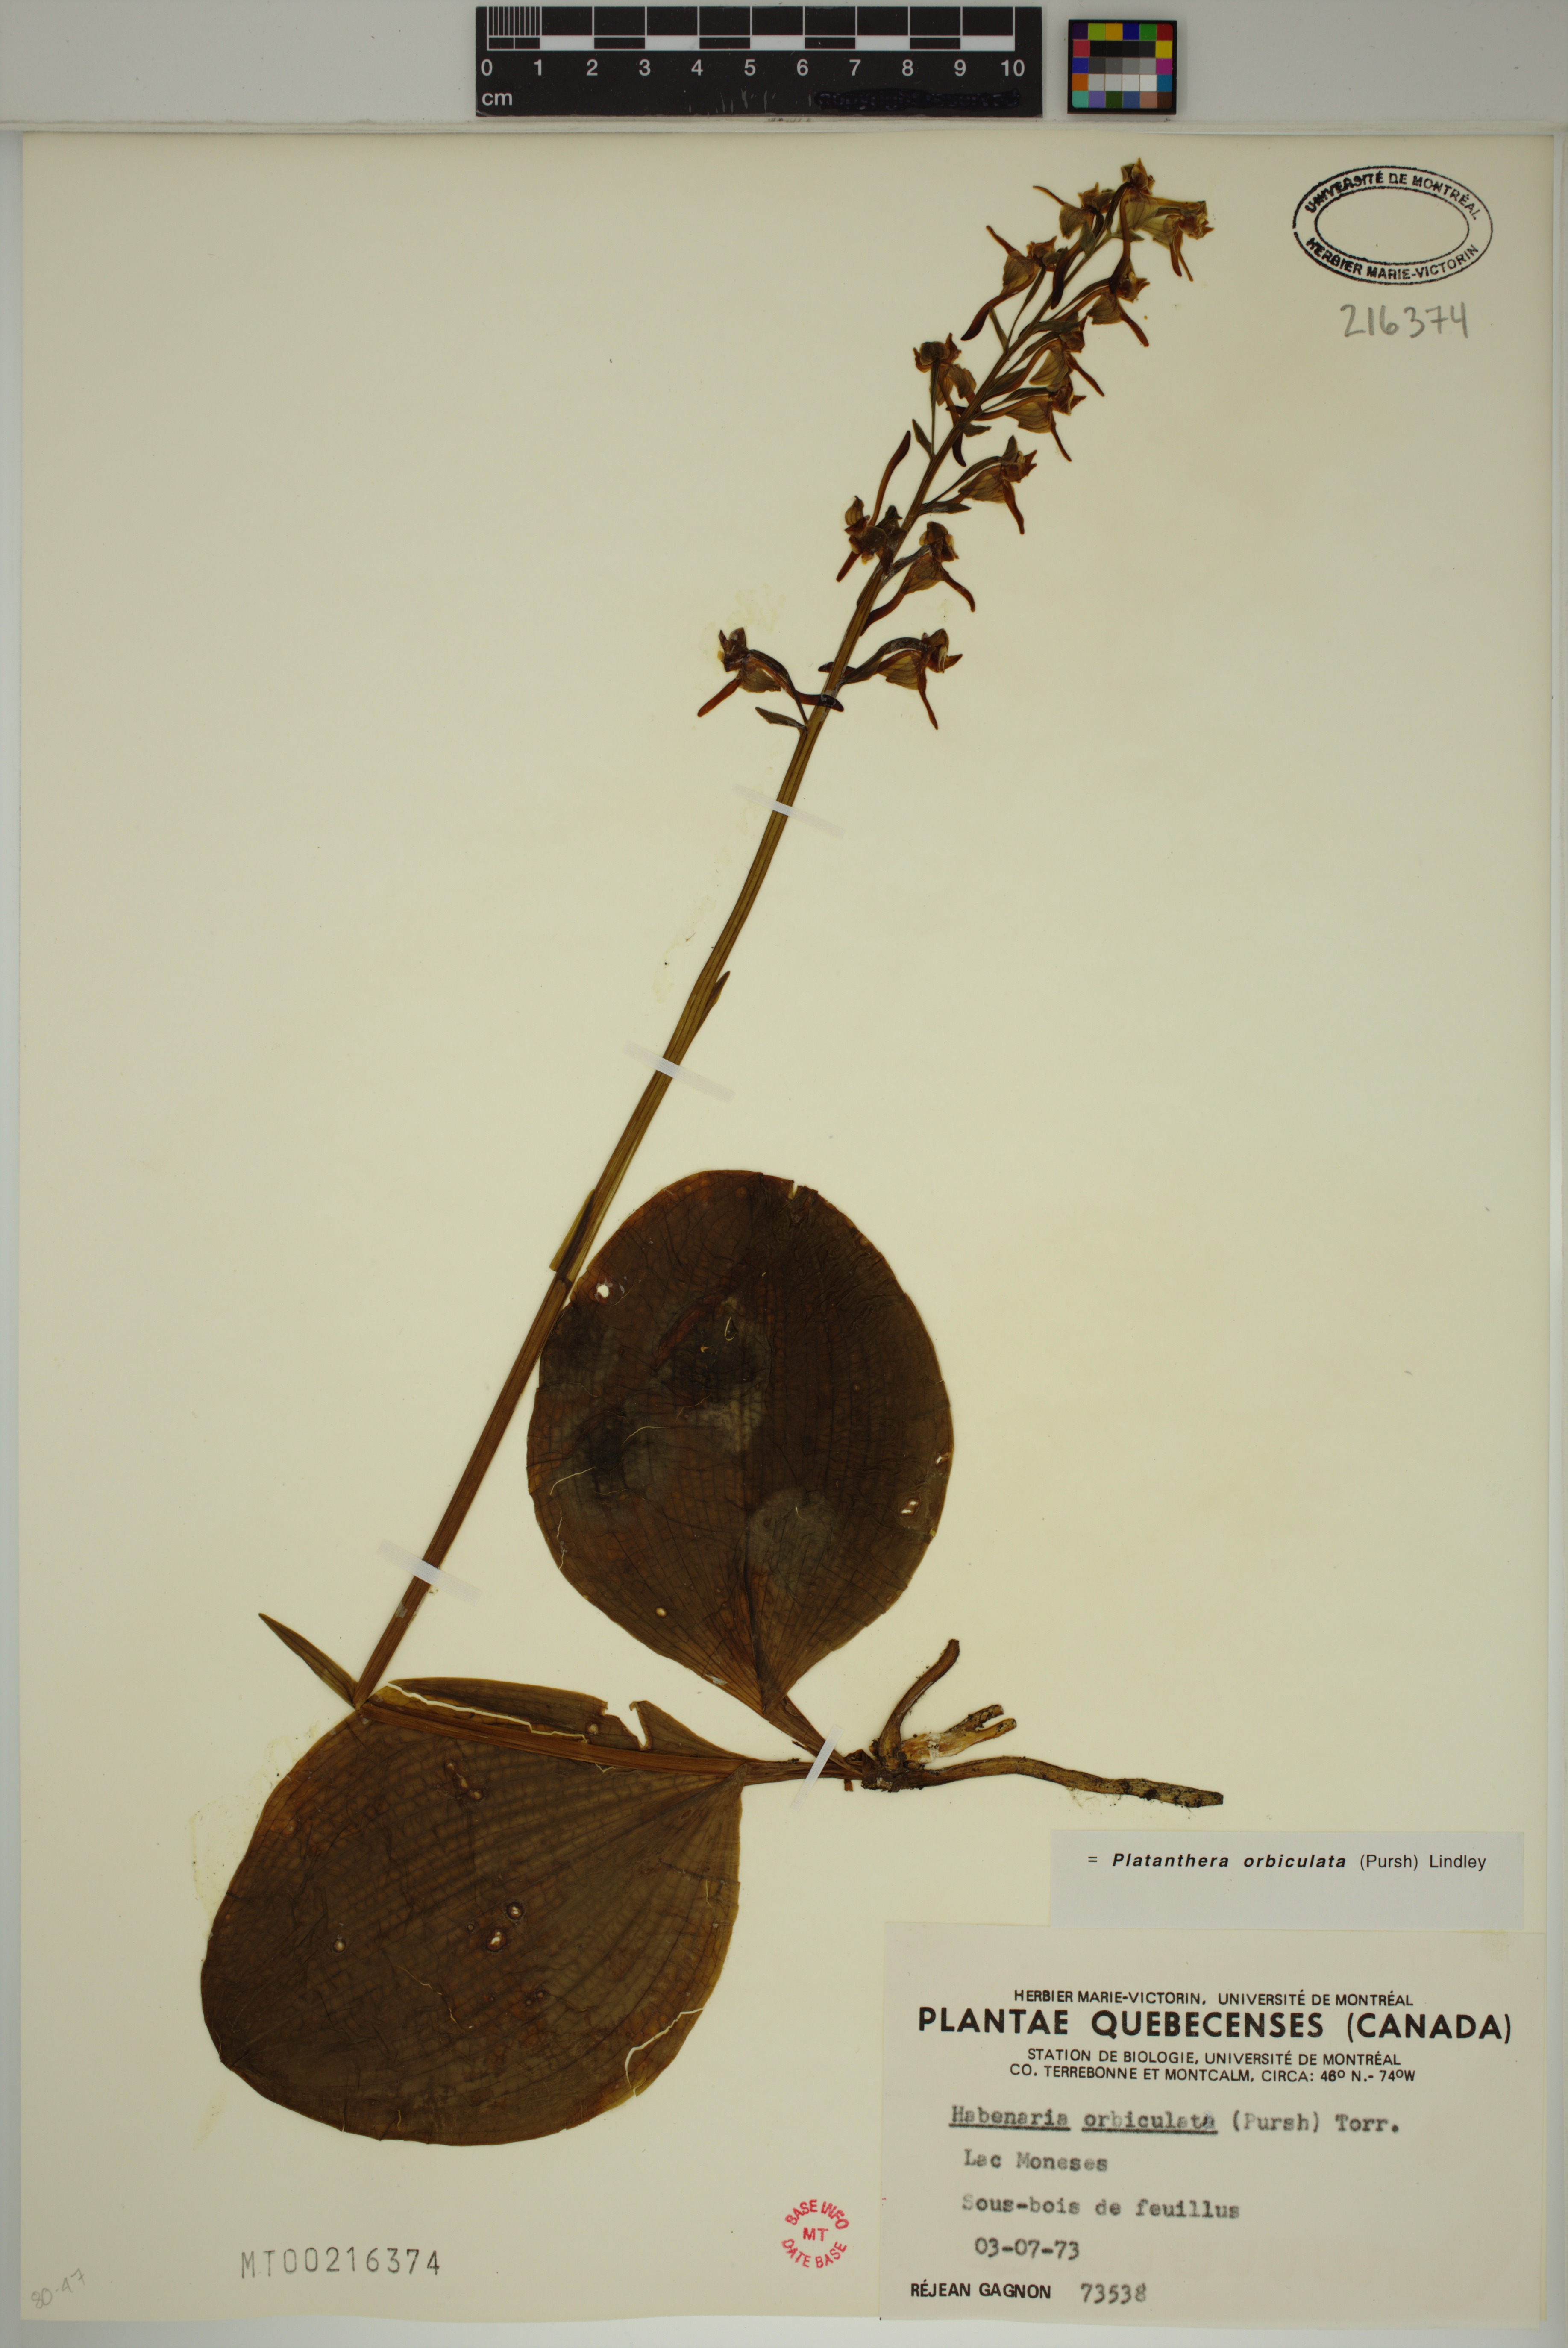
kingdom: Plantae
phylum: Tracheophyta
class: Liliopsida
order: Asparagales
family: Orchidaceae
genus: Platanthera
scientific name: Platanthera orbiculata
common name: Large round-leaved orchid
